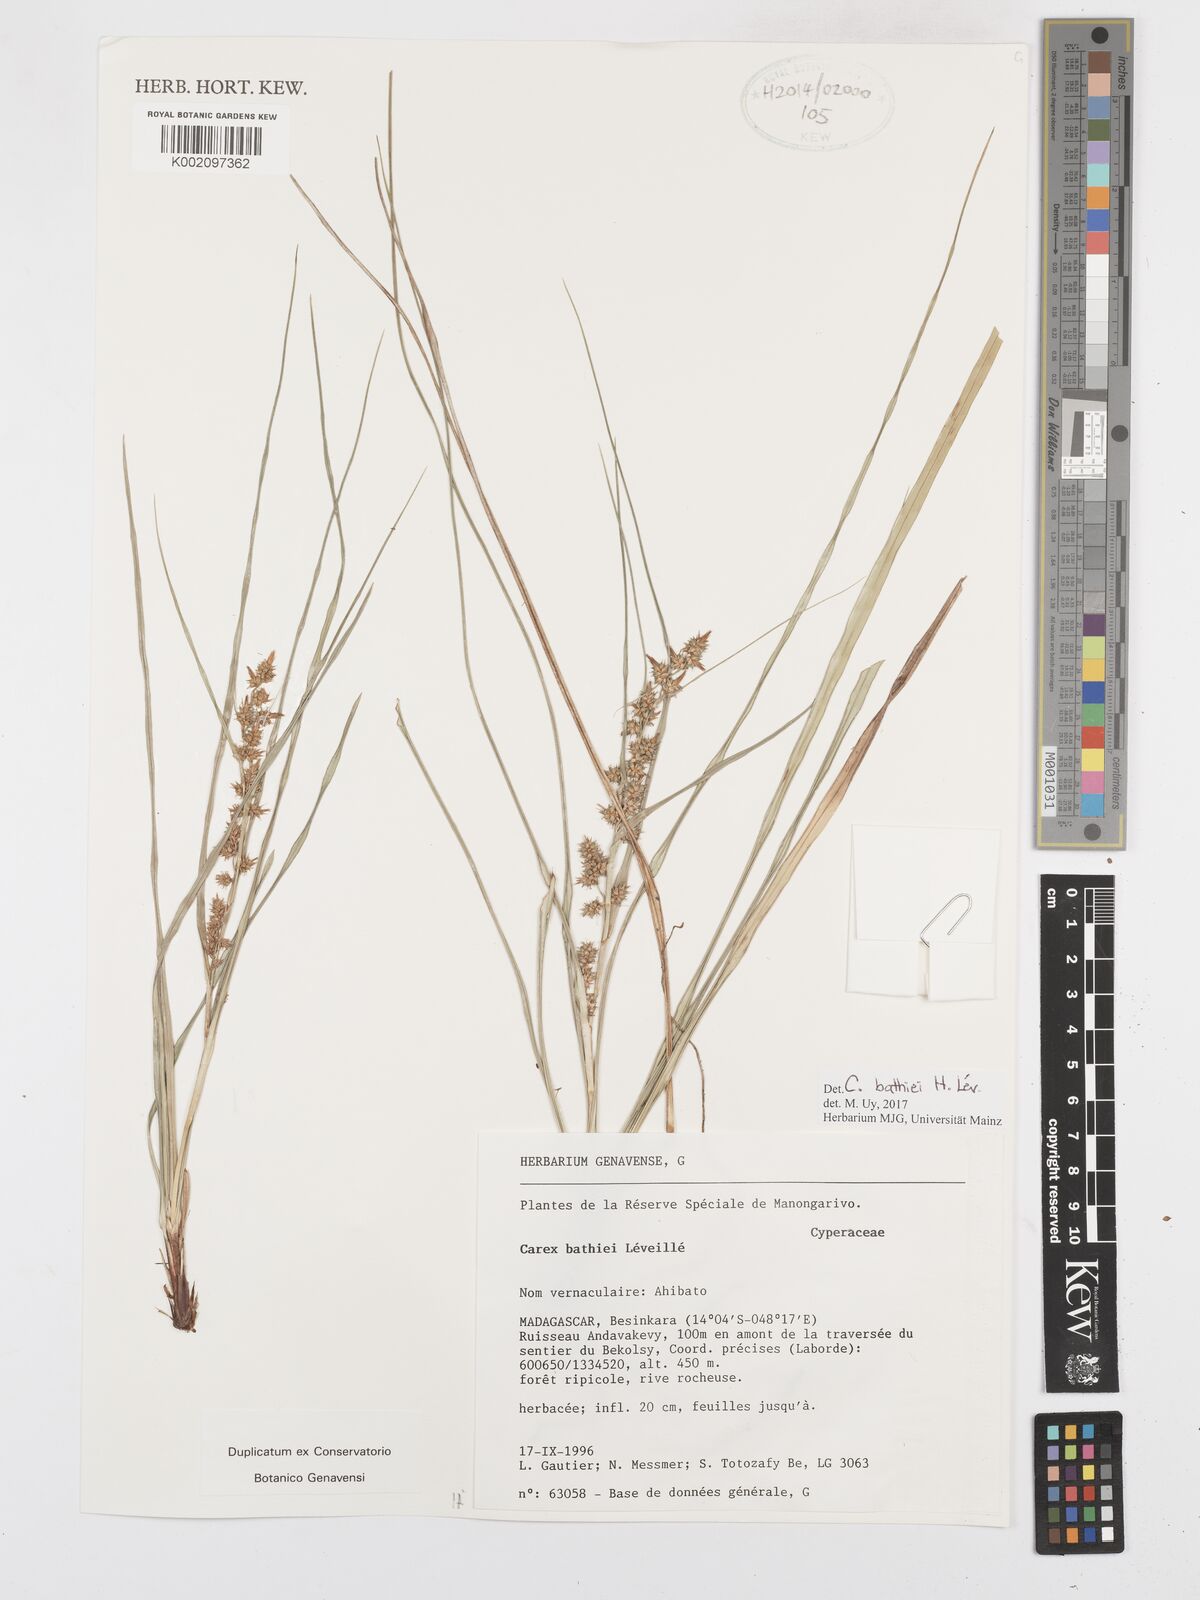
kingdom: Plantae
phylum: Tracheophyta
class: Liliopsida
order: Poales
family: Cyperaceae
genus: Carex
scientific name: Carex bathiei
